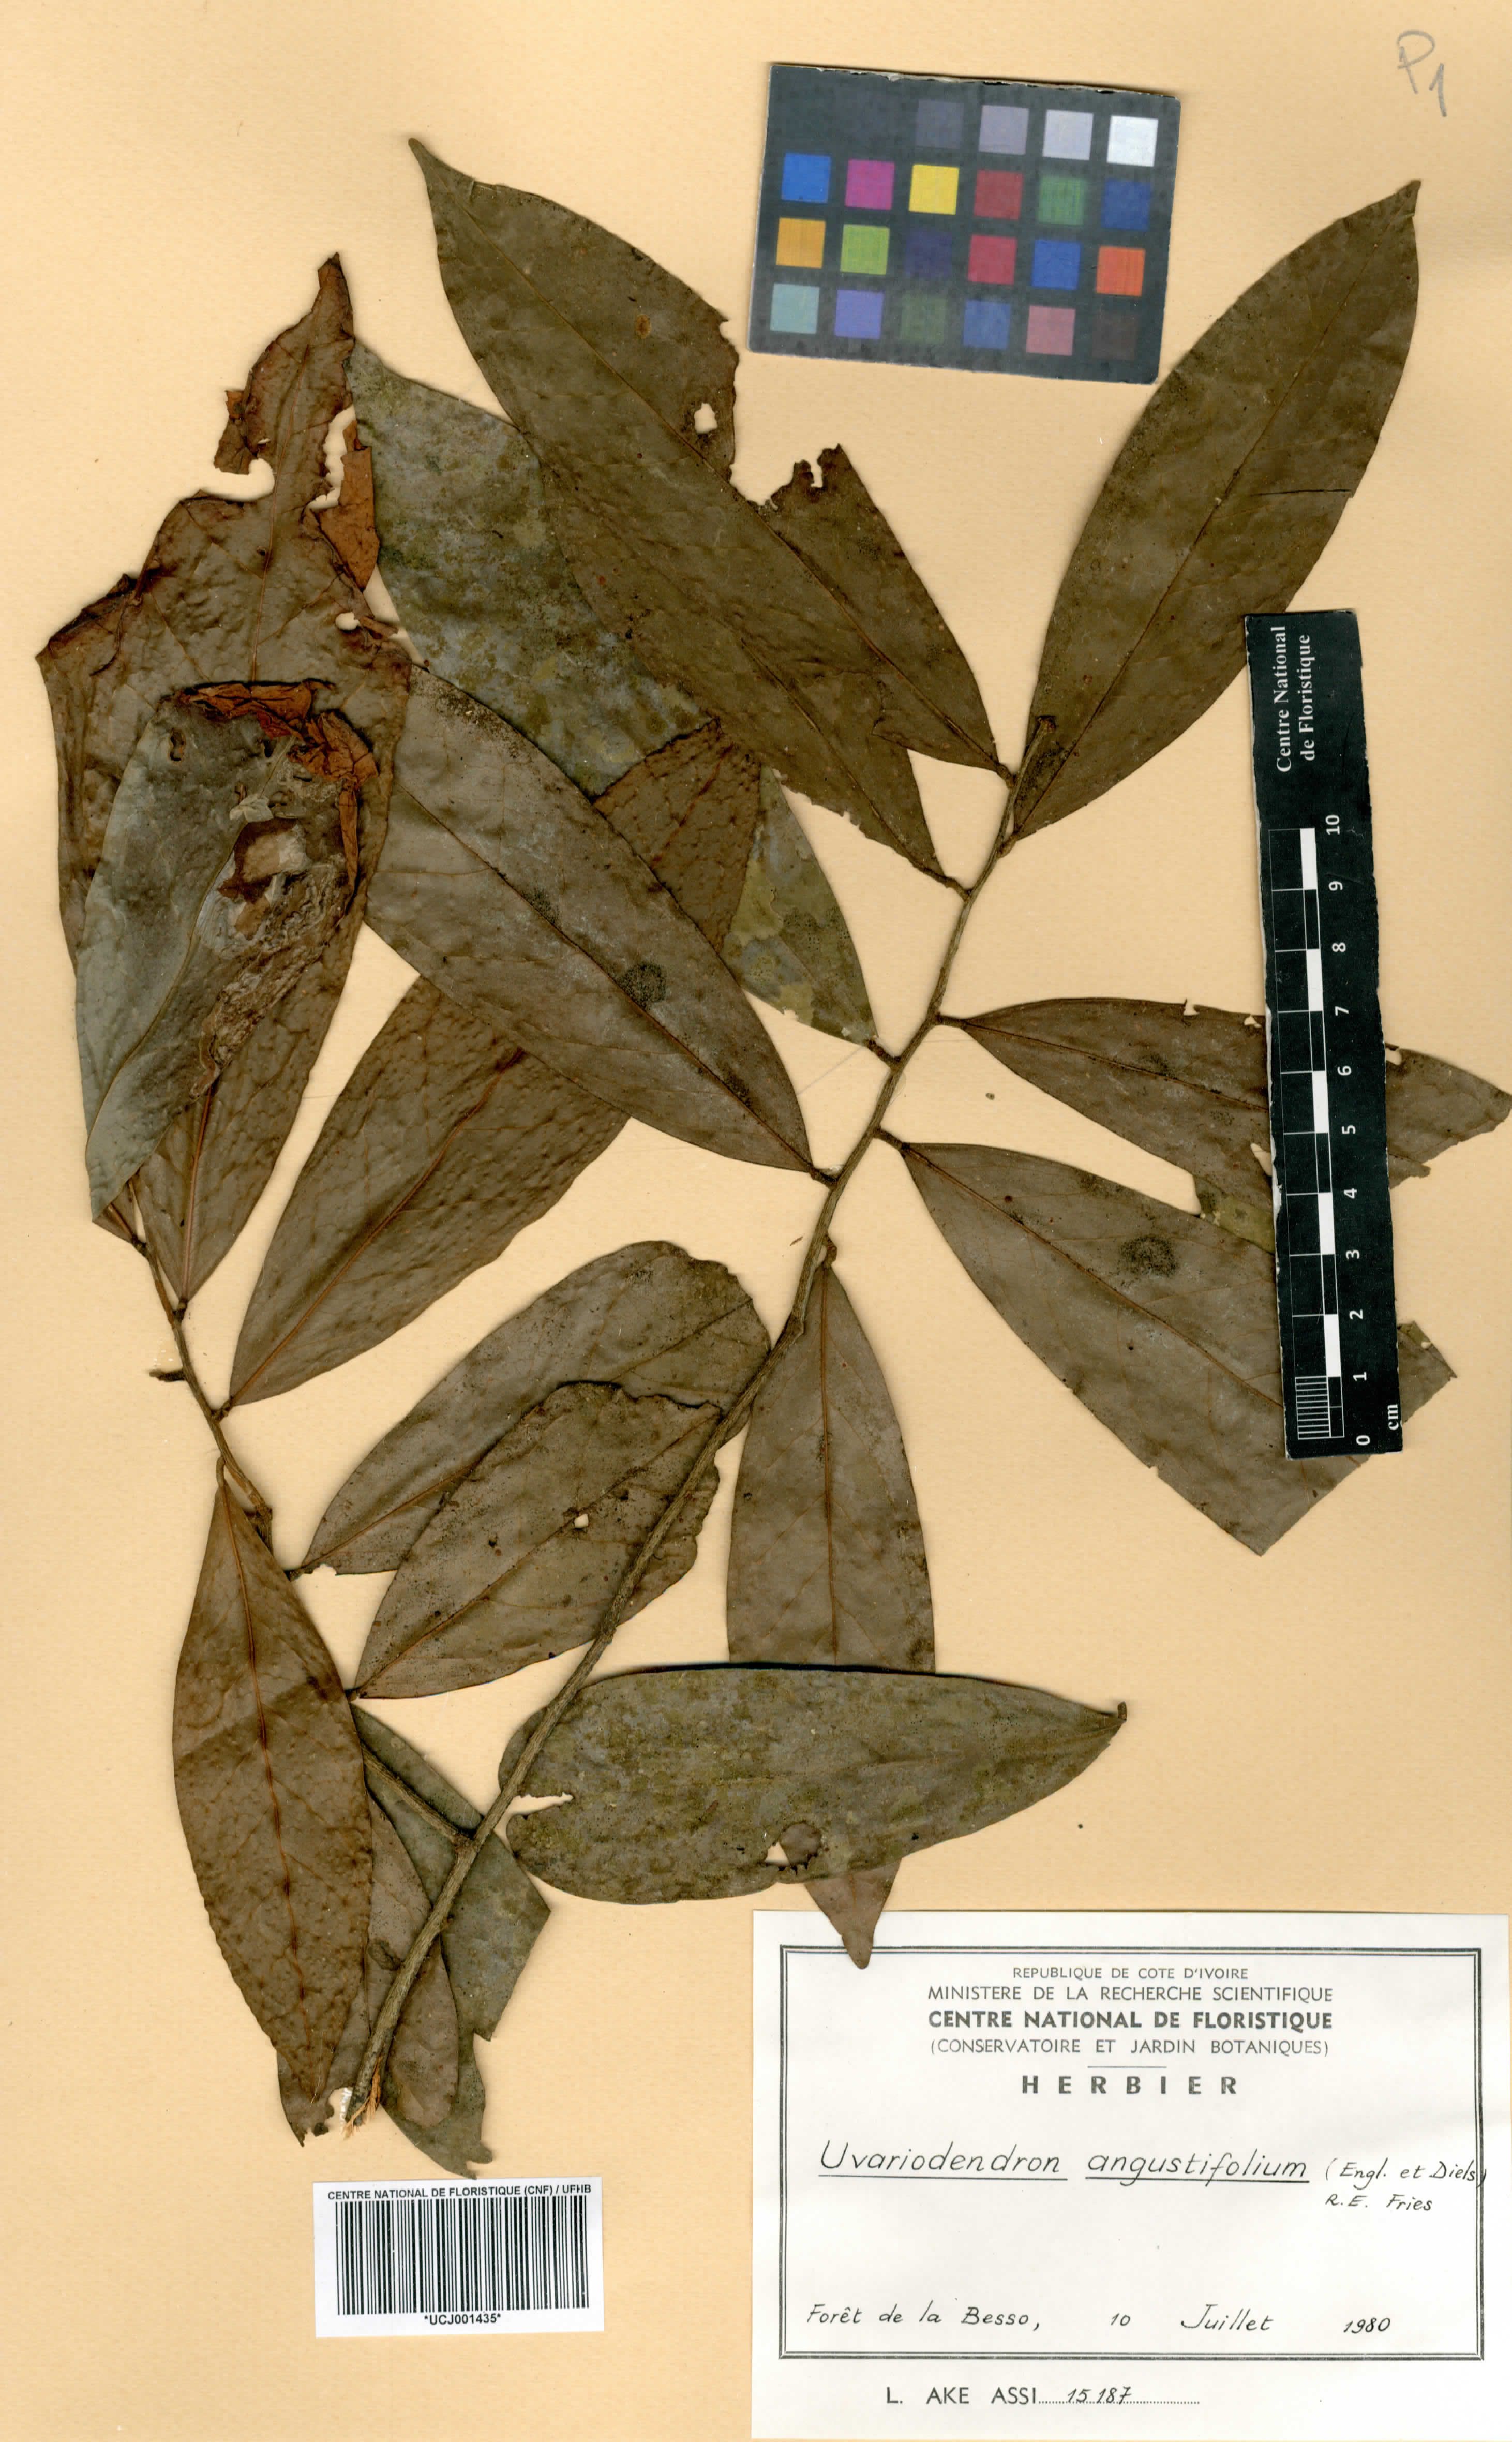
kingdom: Plantae
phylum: Tracheophyta
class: Magnoliopsida
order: Magnoliales
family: Annonaceae
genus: Uvariodendron
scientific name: Uvariodendron angustifolium
